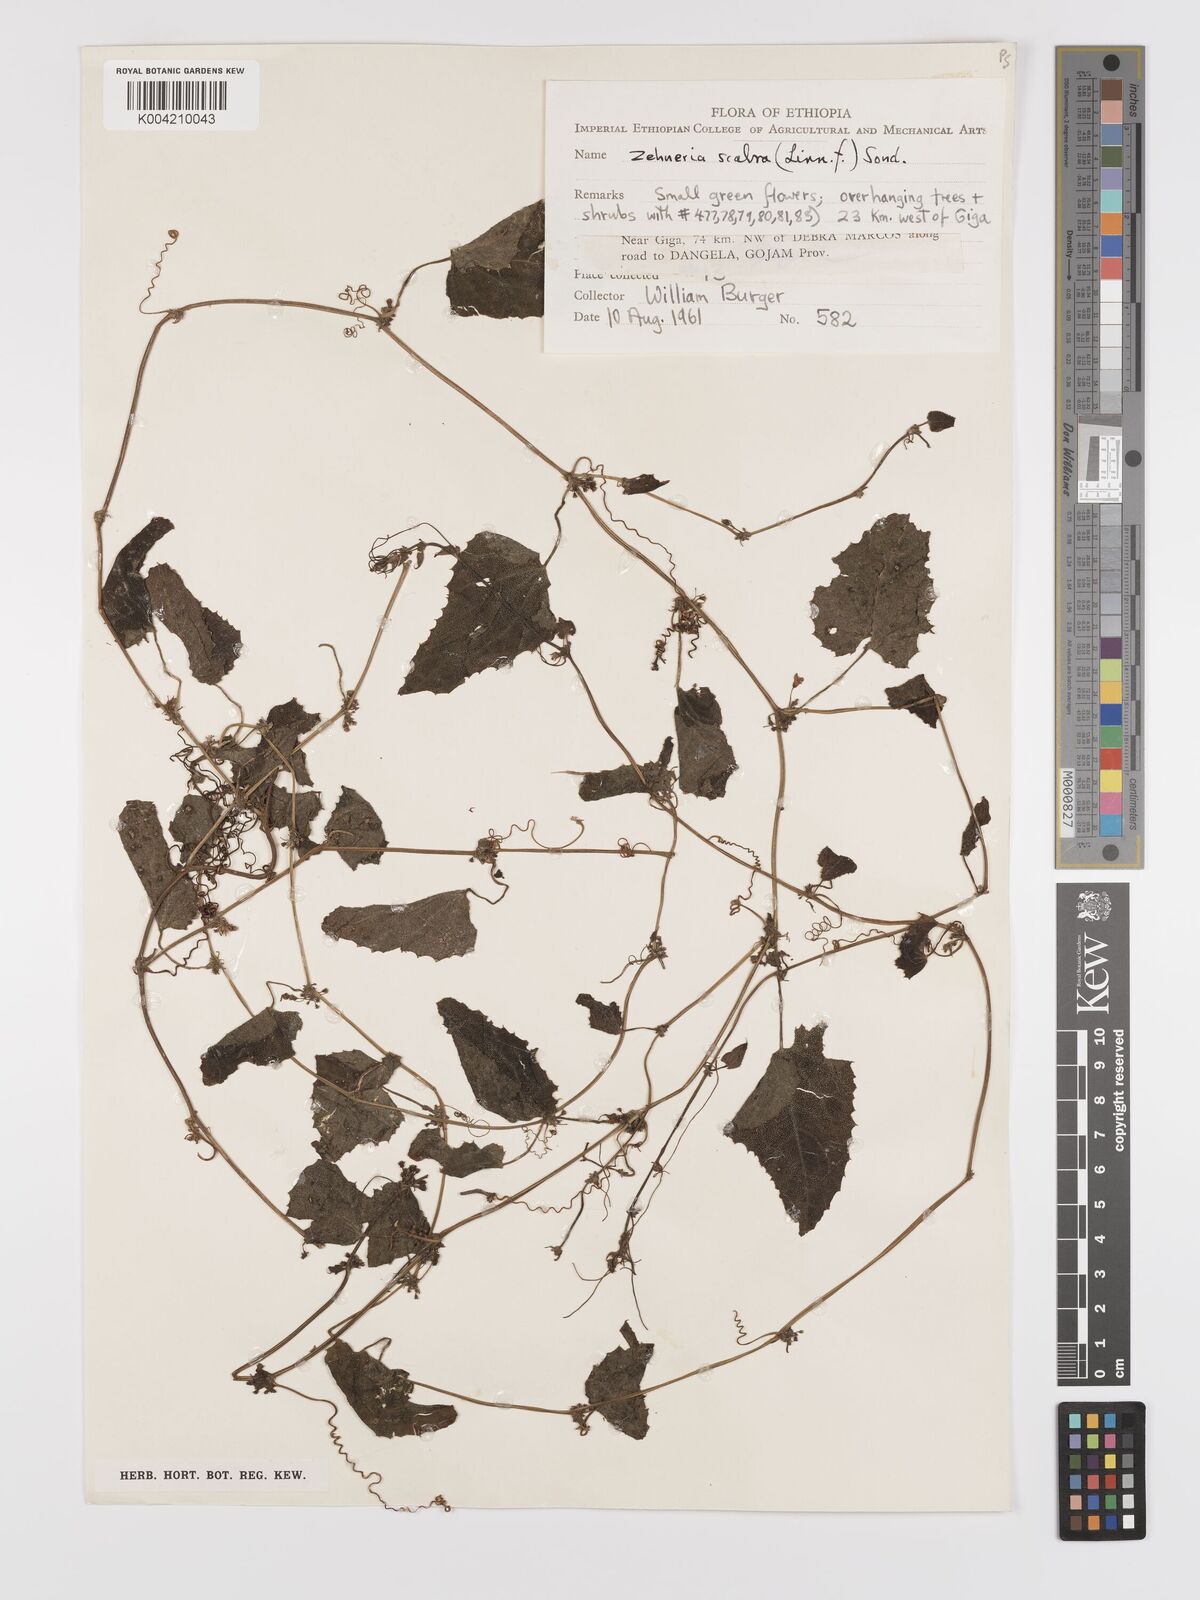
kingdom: Plantae
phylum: Tracheophyta
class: Magnoliopsida
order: Cucurbitales
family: Cucurbitaceae
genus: Zehneria
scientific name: Zehneria scabra
